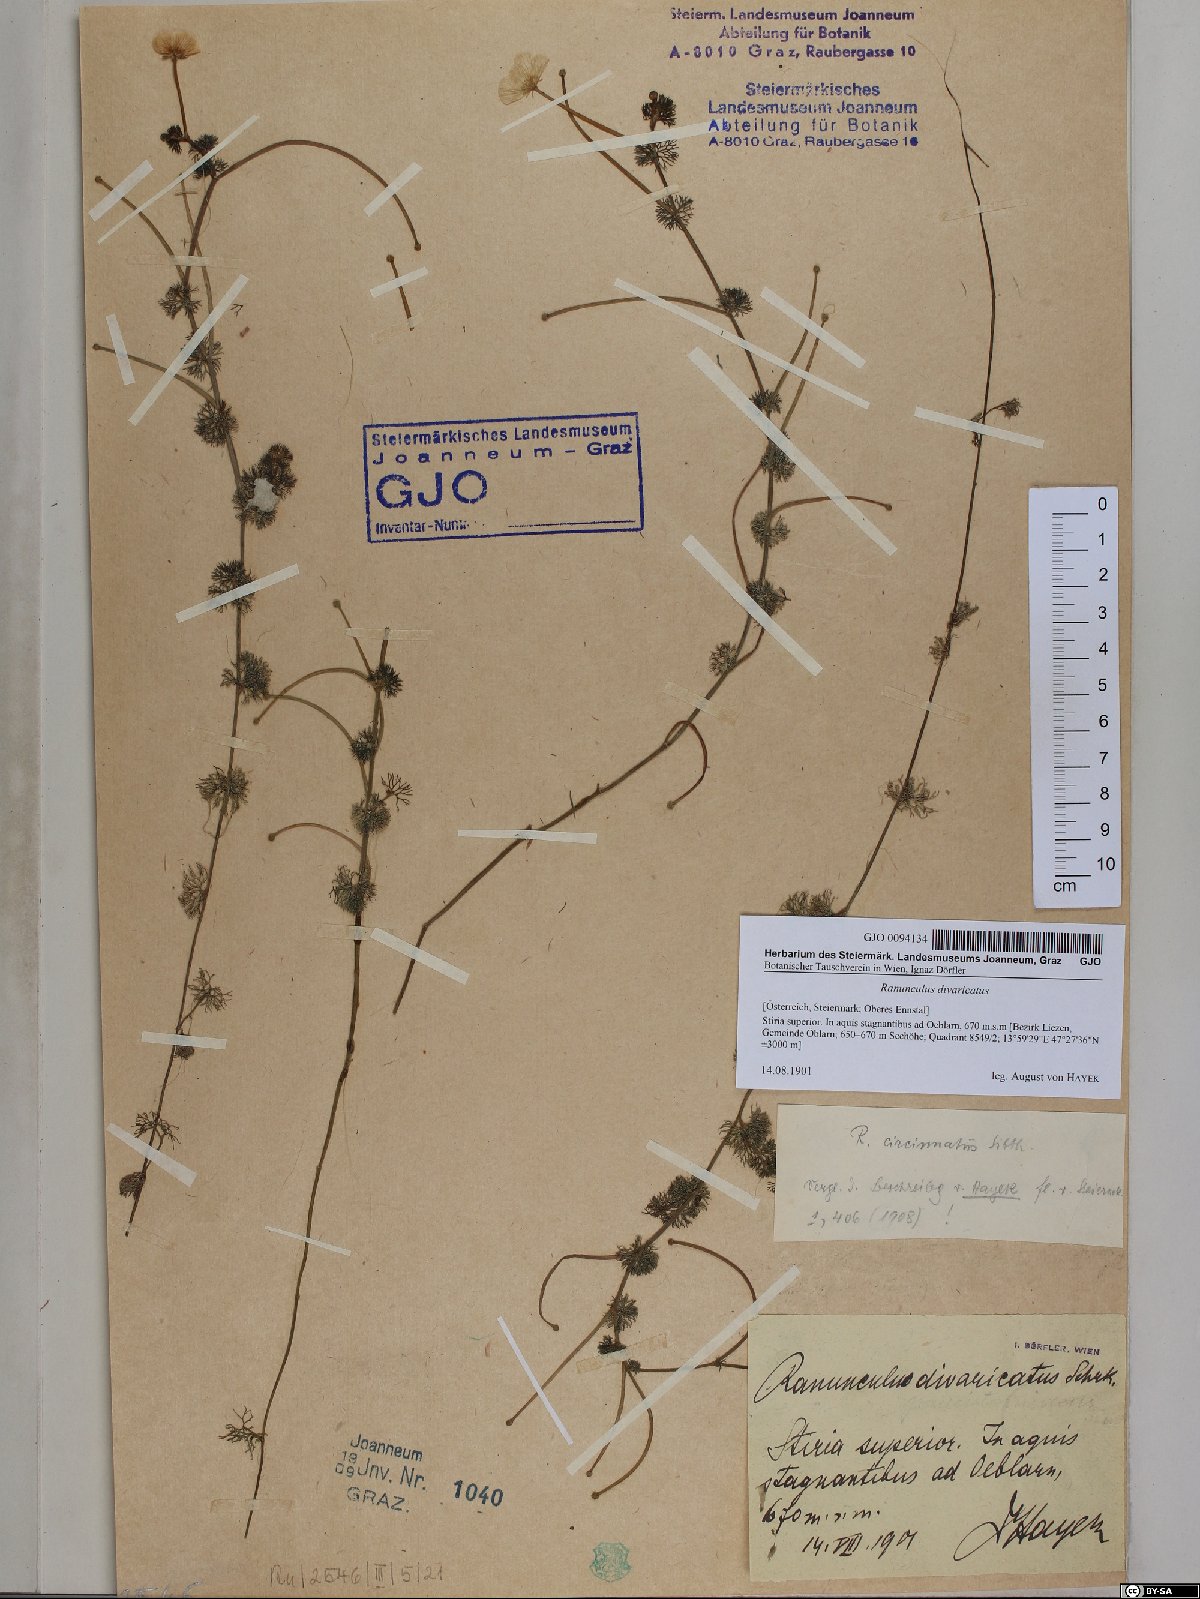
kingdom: Plantae
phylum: Tracheophyta
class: Magnoliopsida
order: Ranunculales
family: Ranunculaceae
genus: Ranunculus
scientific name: Ranunculus circinatus
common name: Fan-leaved water-crowfoot
